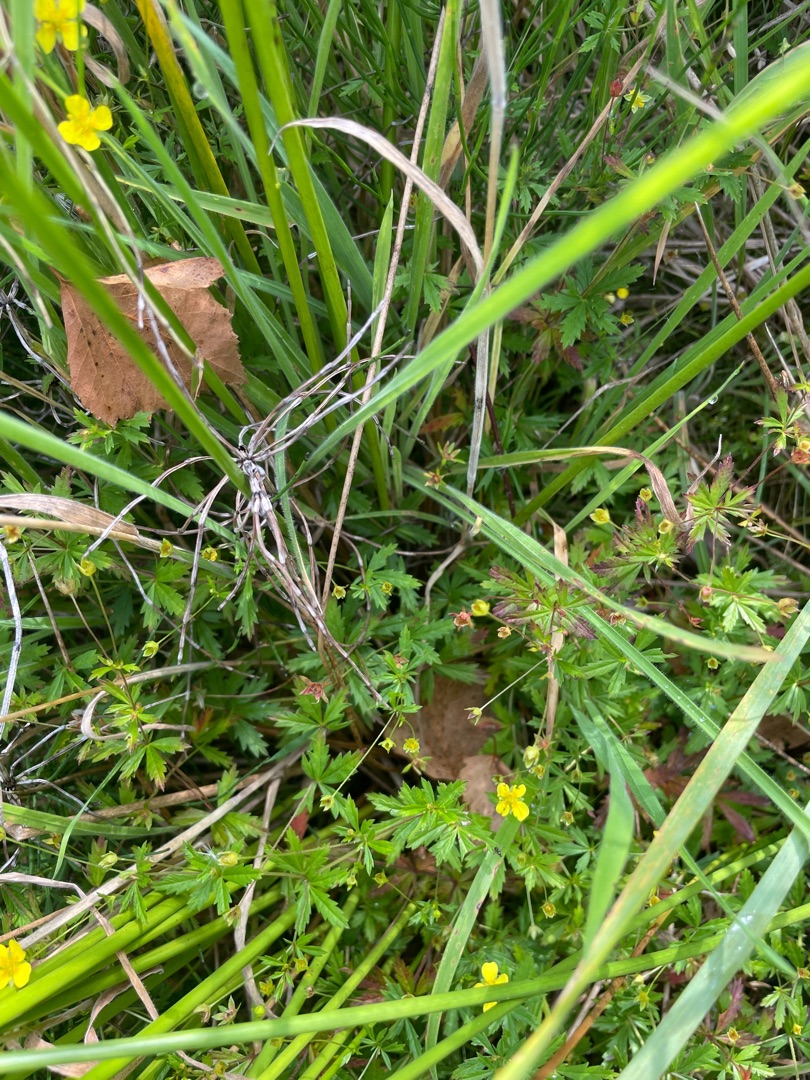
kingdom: Plantae
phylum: Tracheophyta
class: Magnoliopsida
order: Rosales
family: Rosaceae
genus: Potentilla
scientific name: Potentilla erecta
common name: Tormentil
